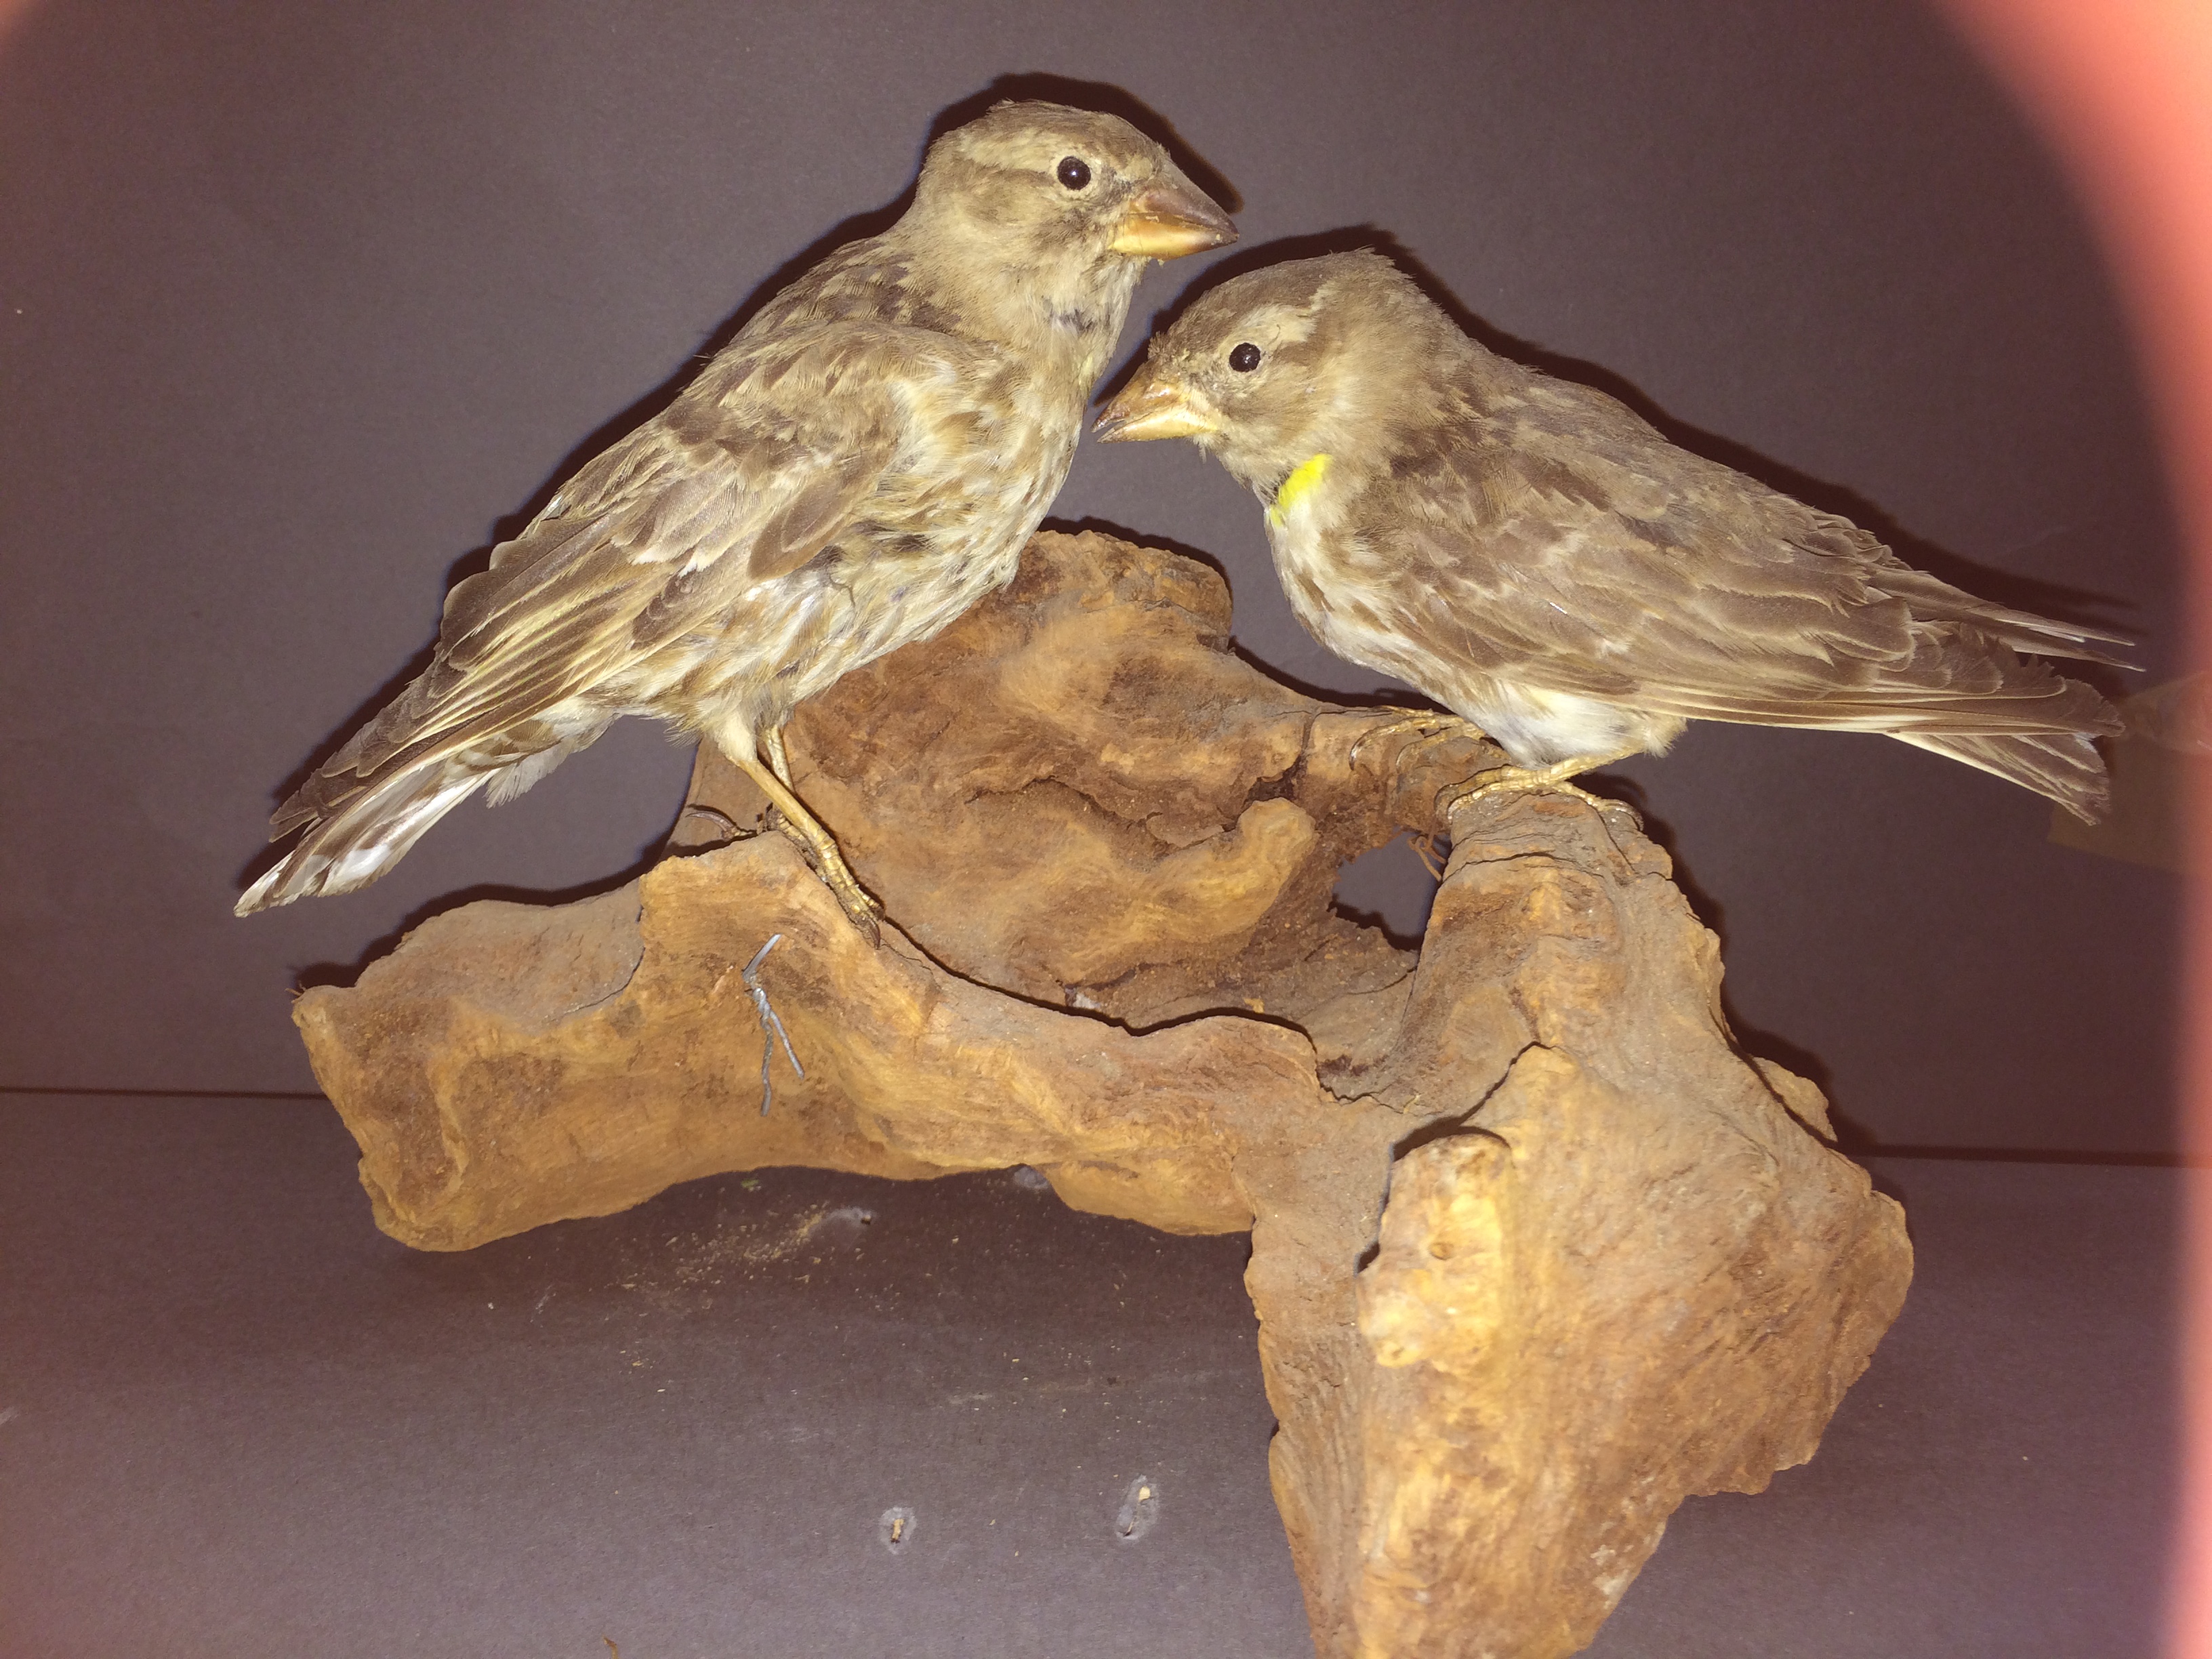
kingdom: Animalia
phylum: Chordata
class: Aves
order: Passeriformes
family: Passeridae
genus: Petronia
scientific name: Petronia petronia
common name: Rock sparrow
